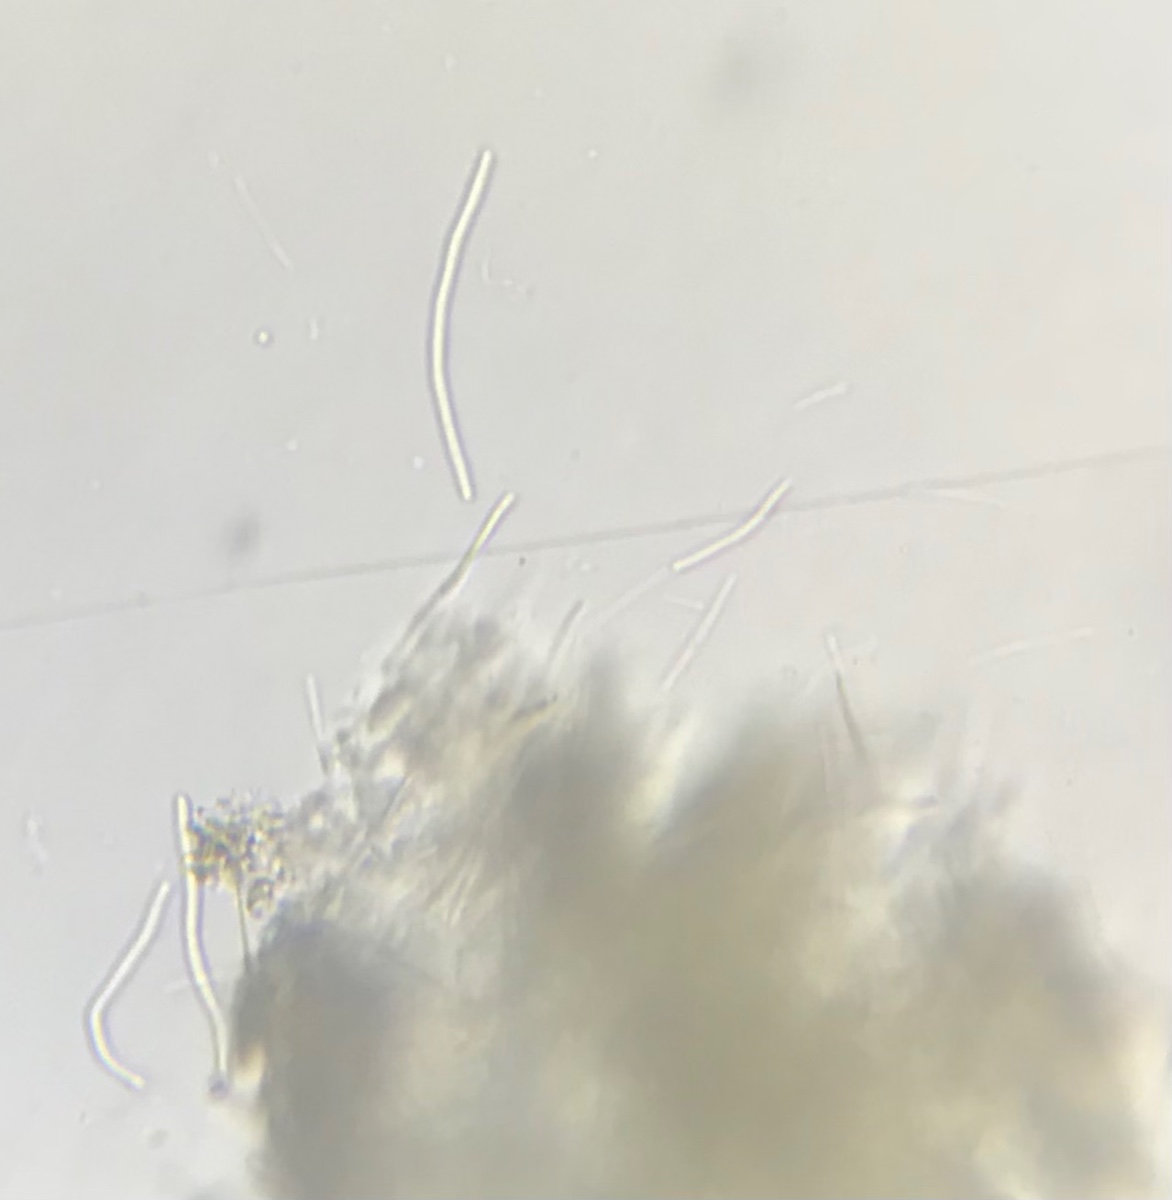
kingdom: Fungi
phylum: Ascomycota
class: Dothideomycetes
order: Mycosphaerellales
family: Mycosphaerellaceae
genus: Septoria
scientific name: Septoria stellariae
